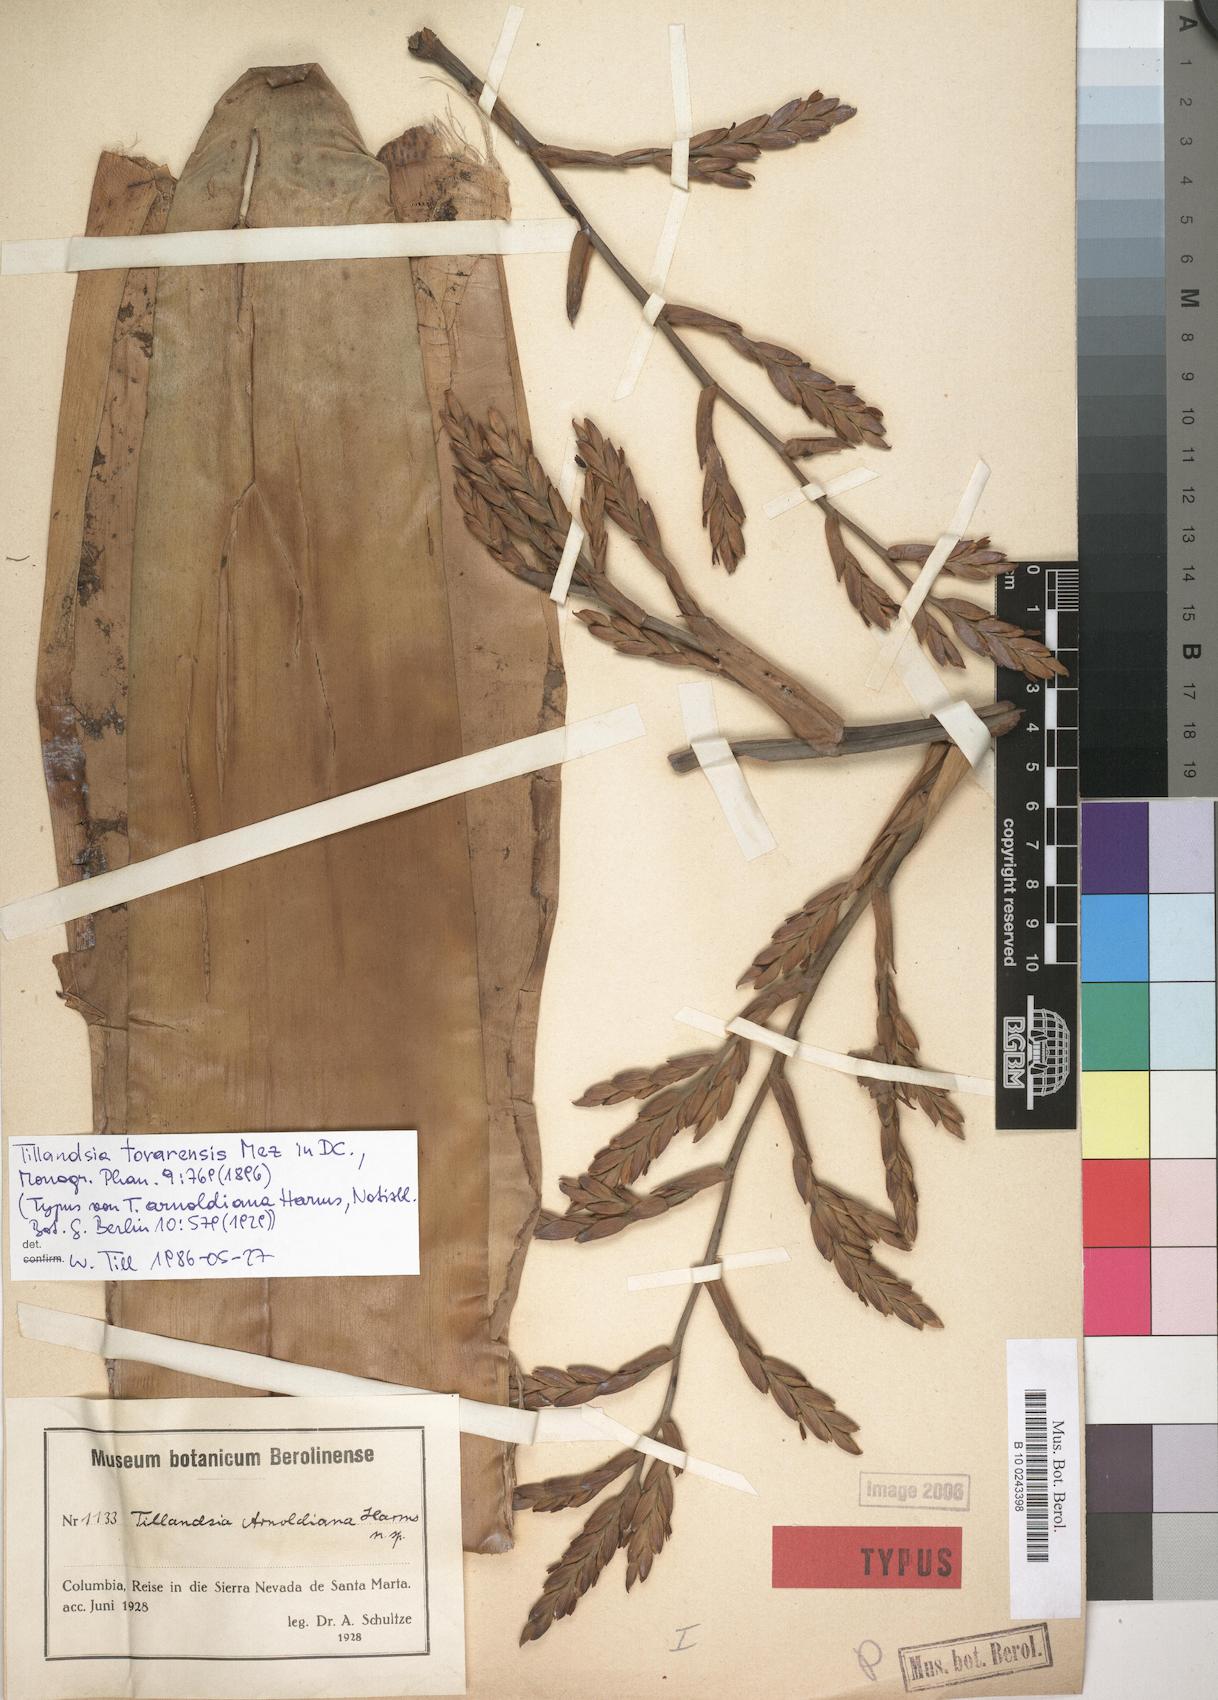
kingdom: Plantae
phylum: Tracheophyta
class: Liliopsida
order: Poales
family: Bromeliaceae
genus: Tillandsia
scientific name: Tillandsia tovarensis
